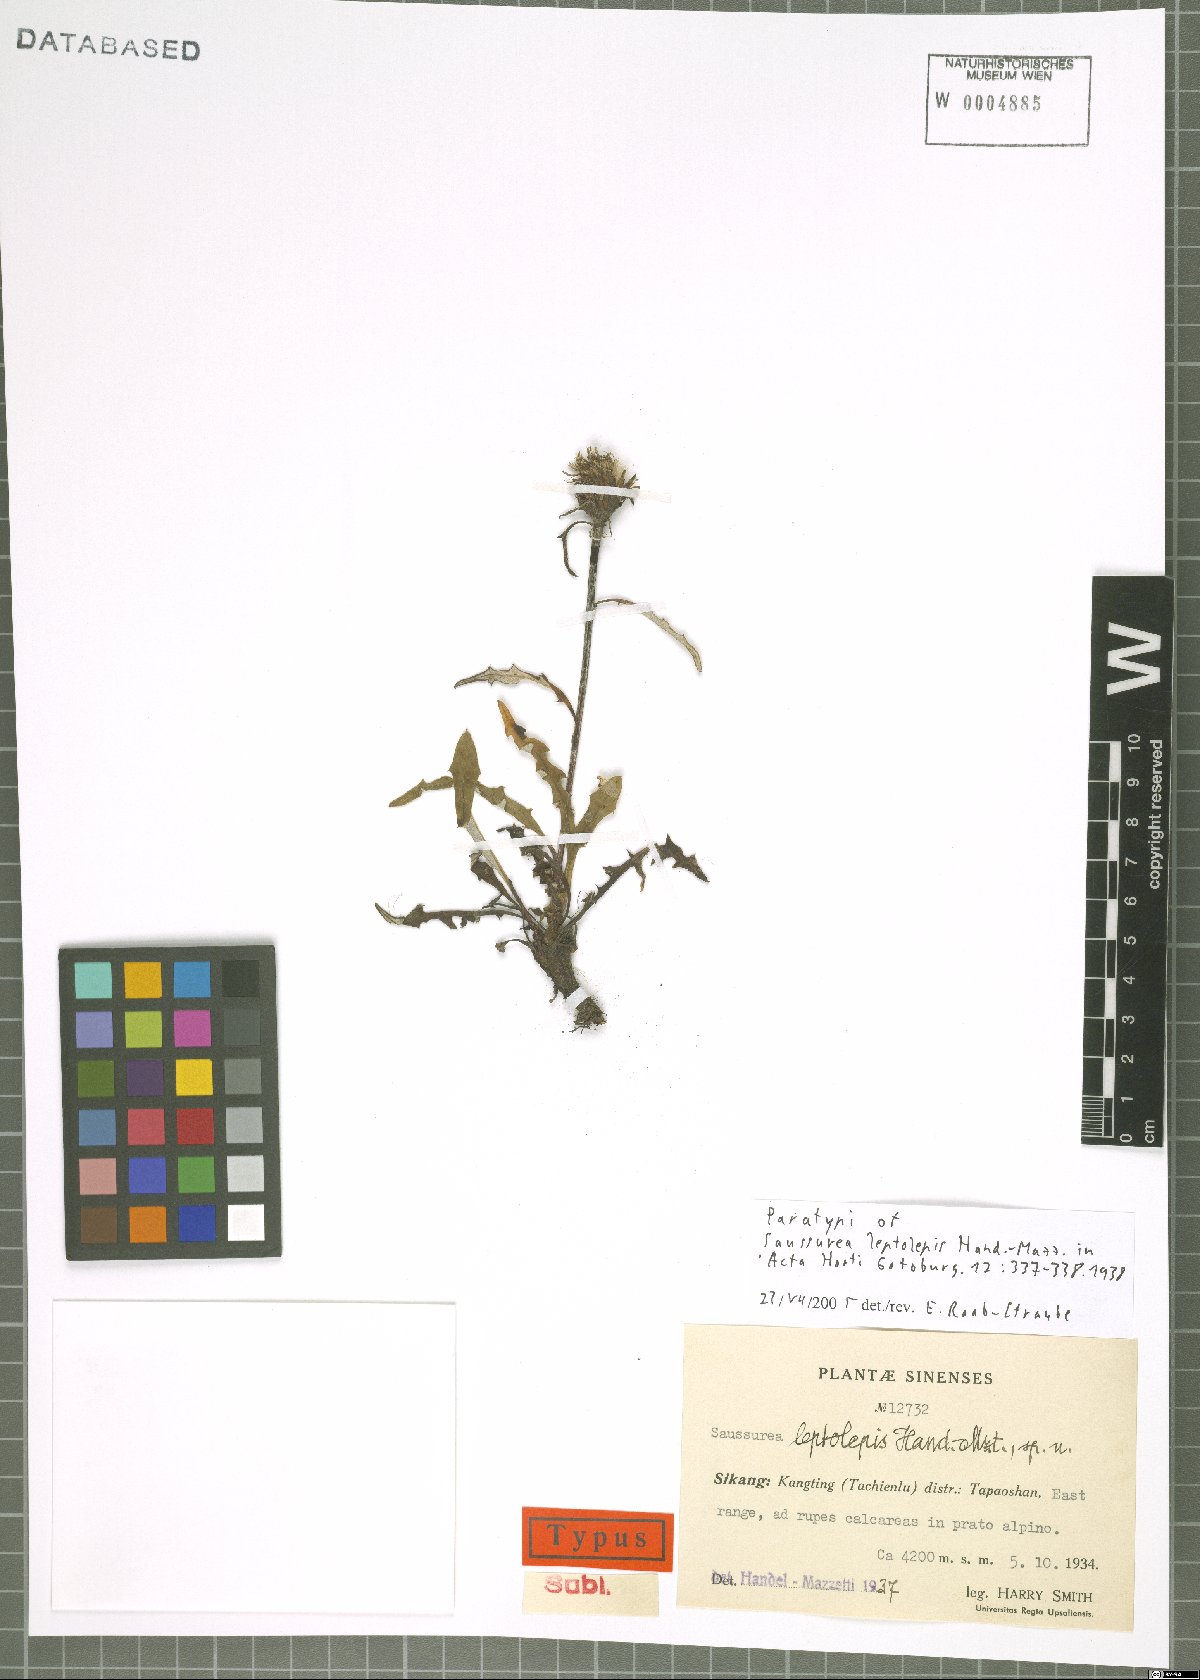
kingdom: Plantae
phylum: Tracheophyta
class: Magnoliopsida
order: Asterales
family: Asteraceae
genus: Saussurea
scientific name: Saussurea leptolepis
